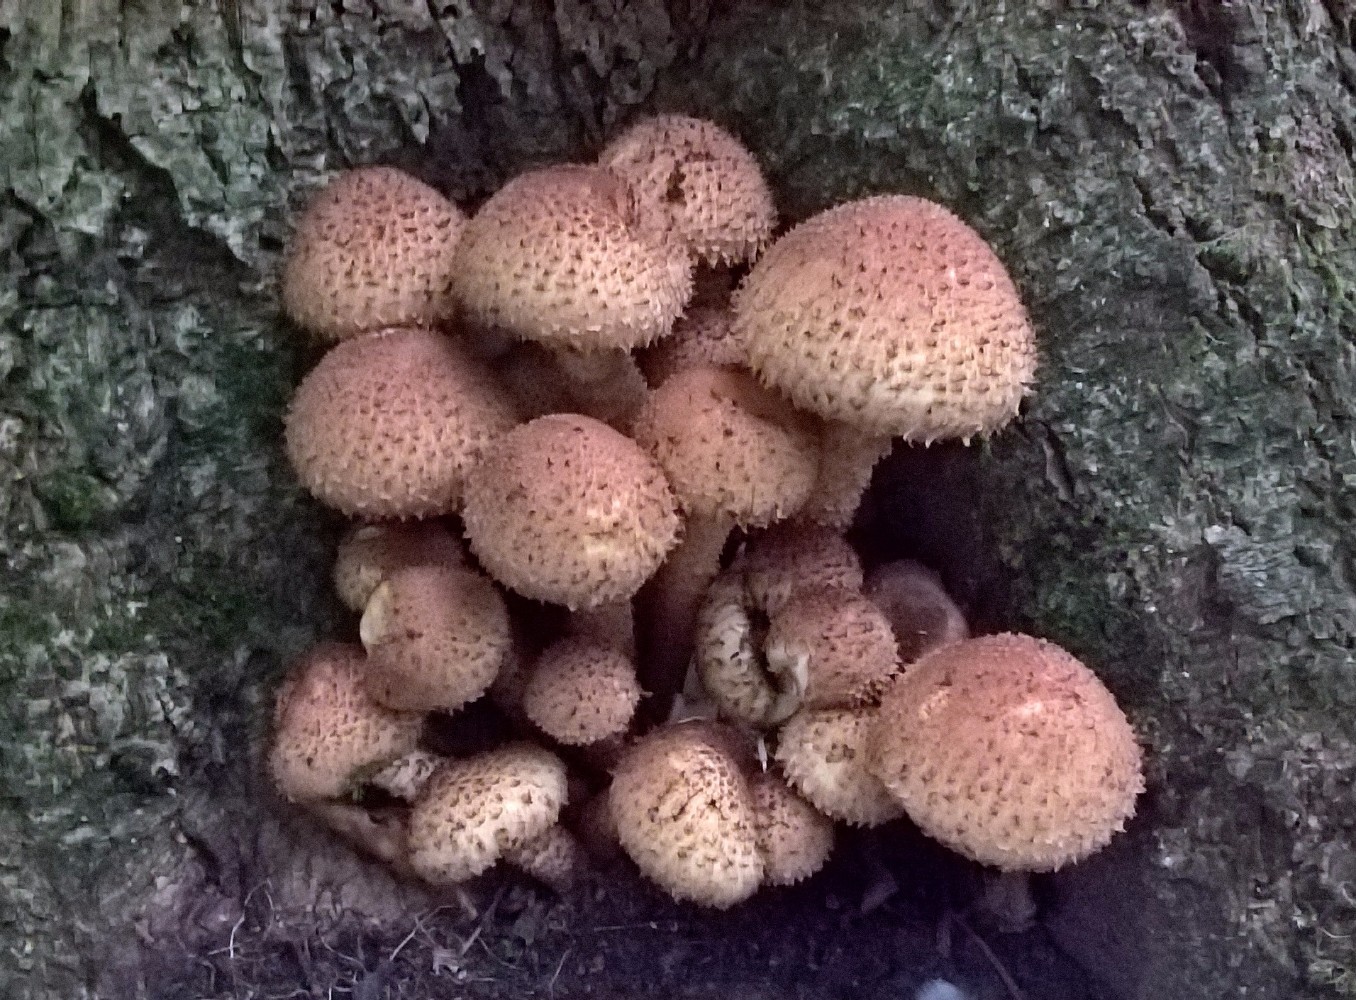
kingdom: Fungi
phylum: Basidiomycota
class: Agaricomycetes
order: Agaricales
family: Strophariaceae
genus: Pholiota
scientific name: Pholiota squarrosa
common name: krumskællet skælhat
